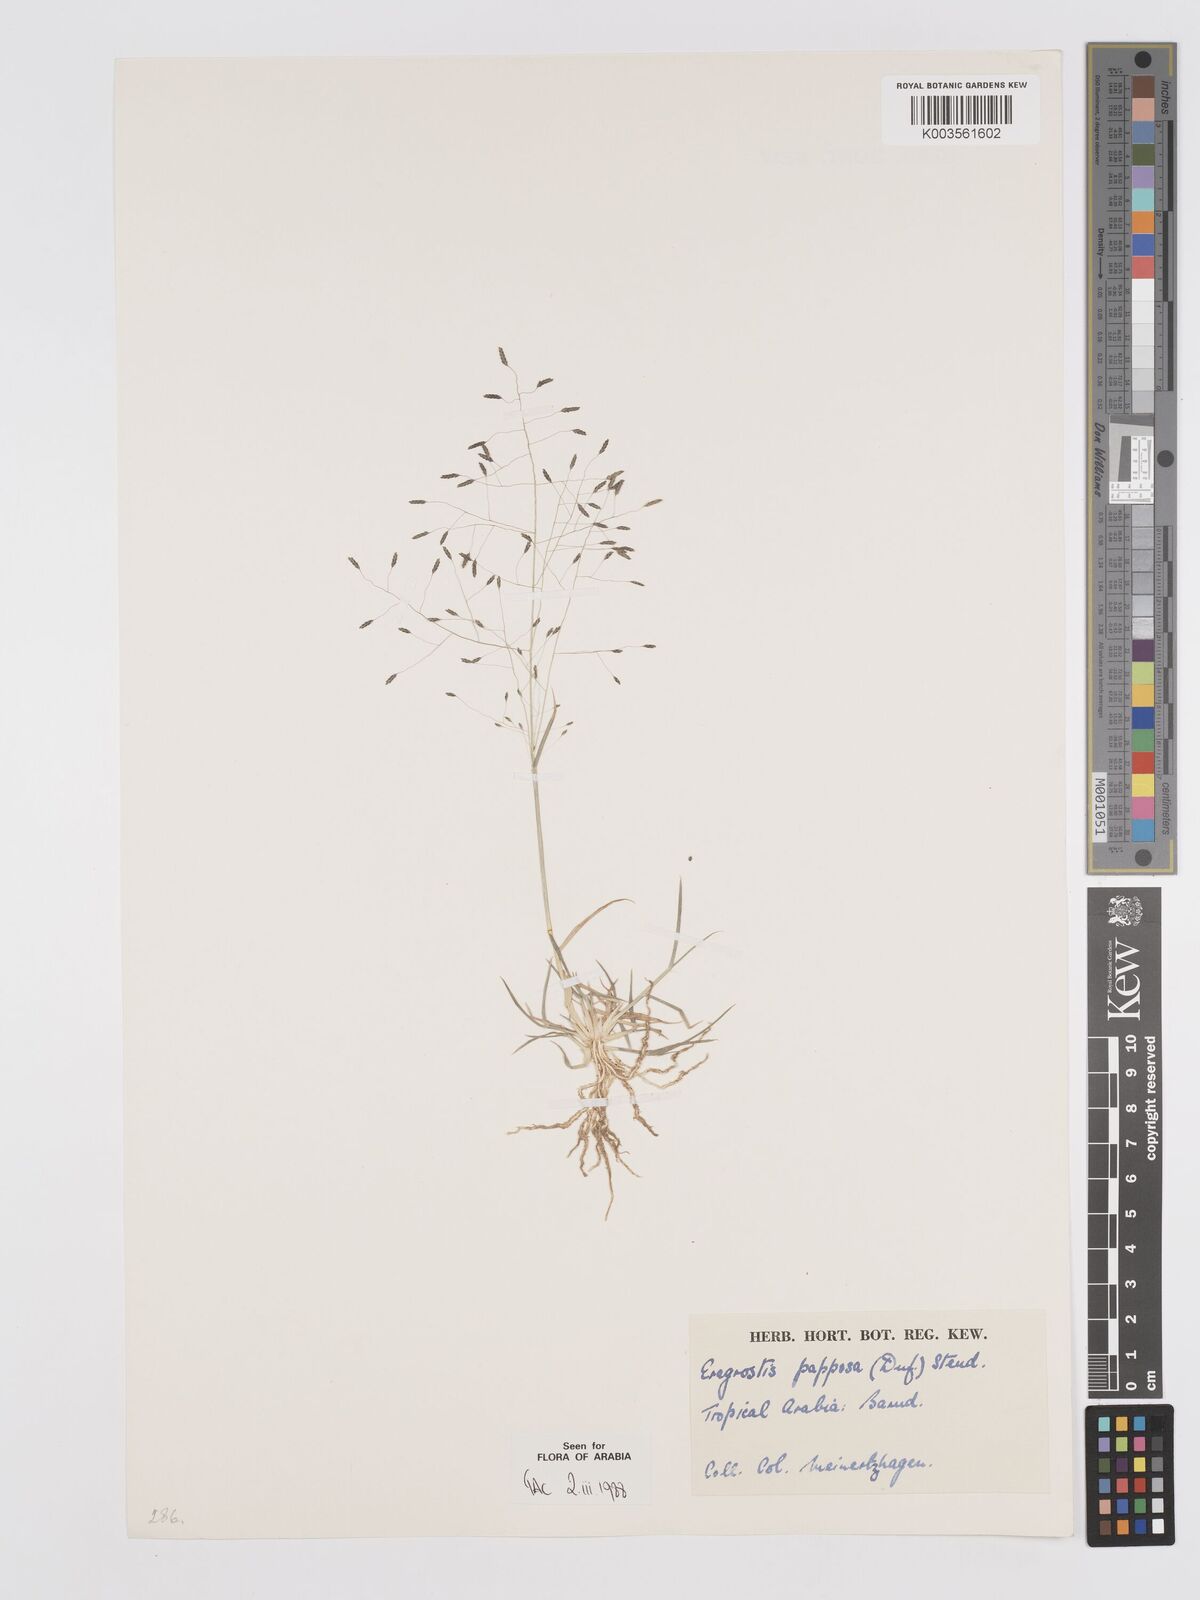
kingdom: Plantae
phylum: Tracheophyta
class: Liliopsida
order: Poales
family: Poaceae
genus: Eragrostis
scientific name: Eragrostis papposa
